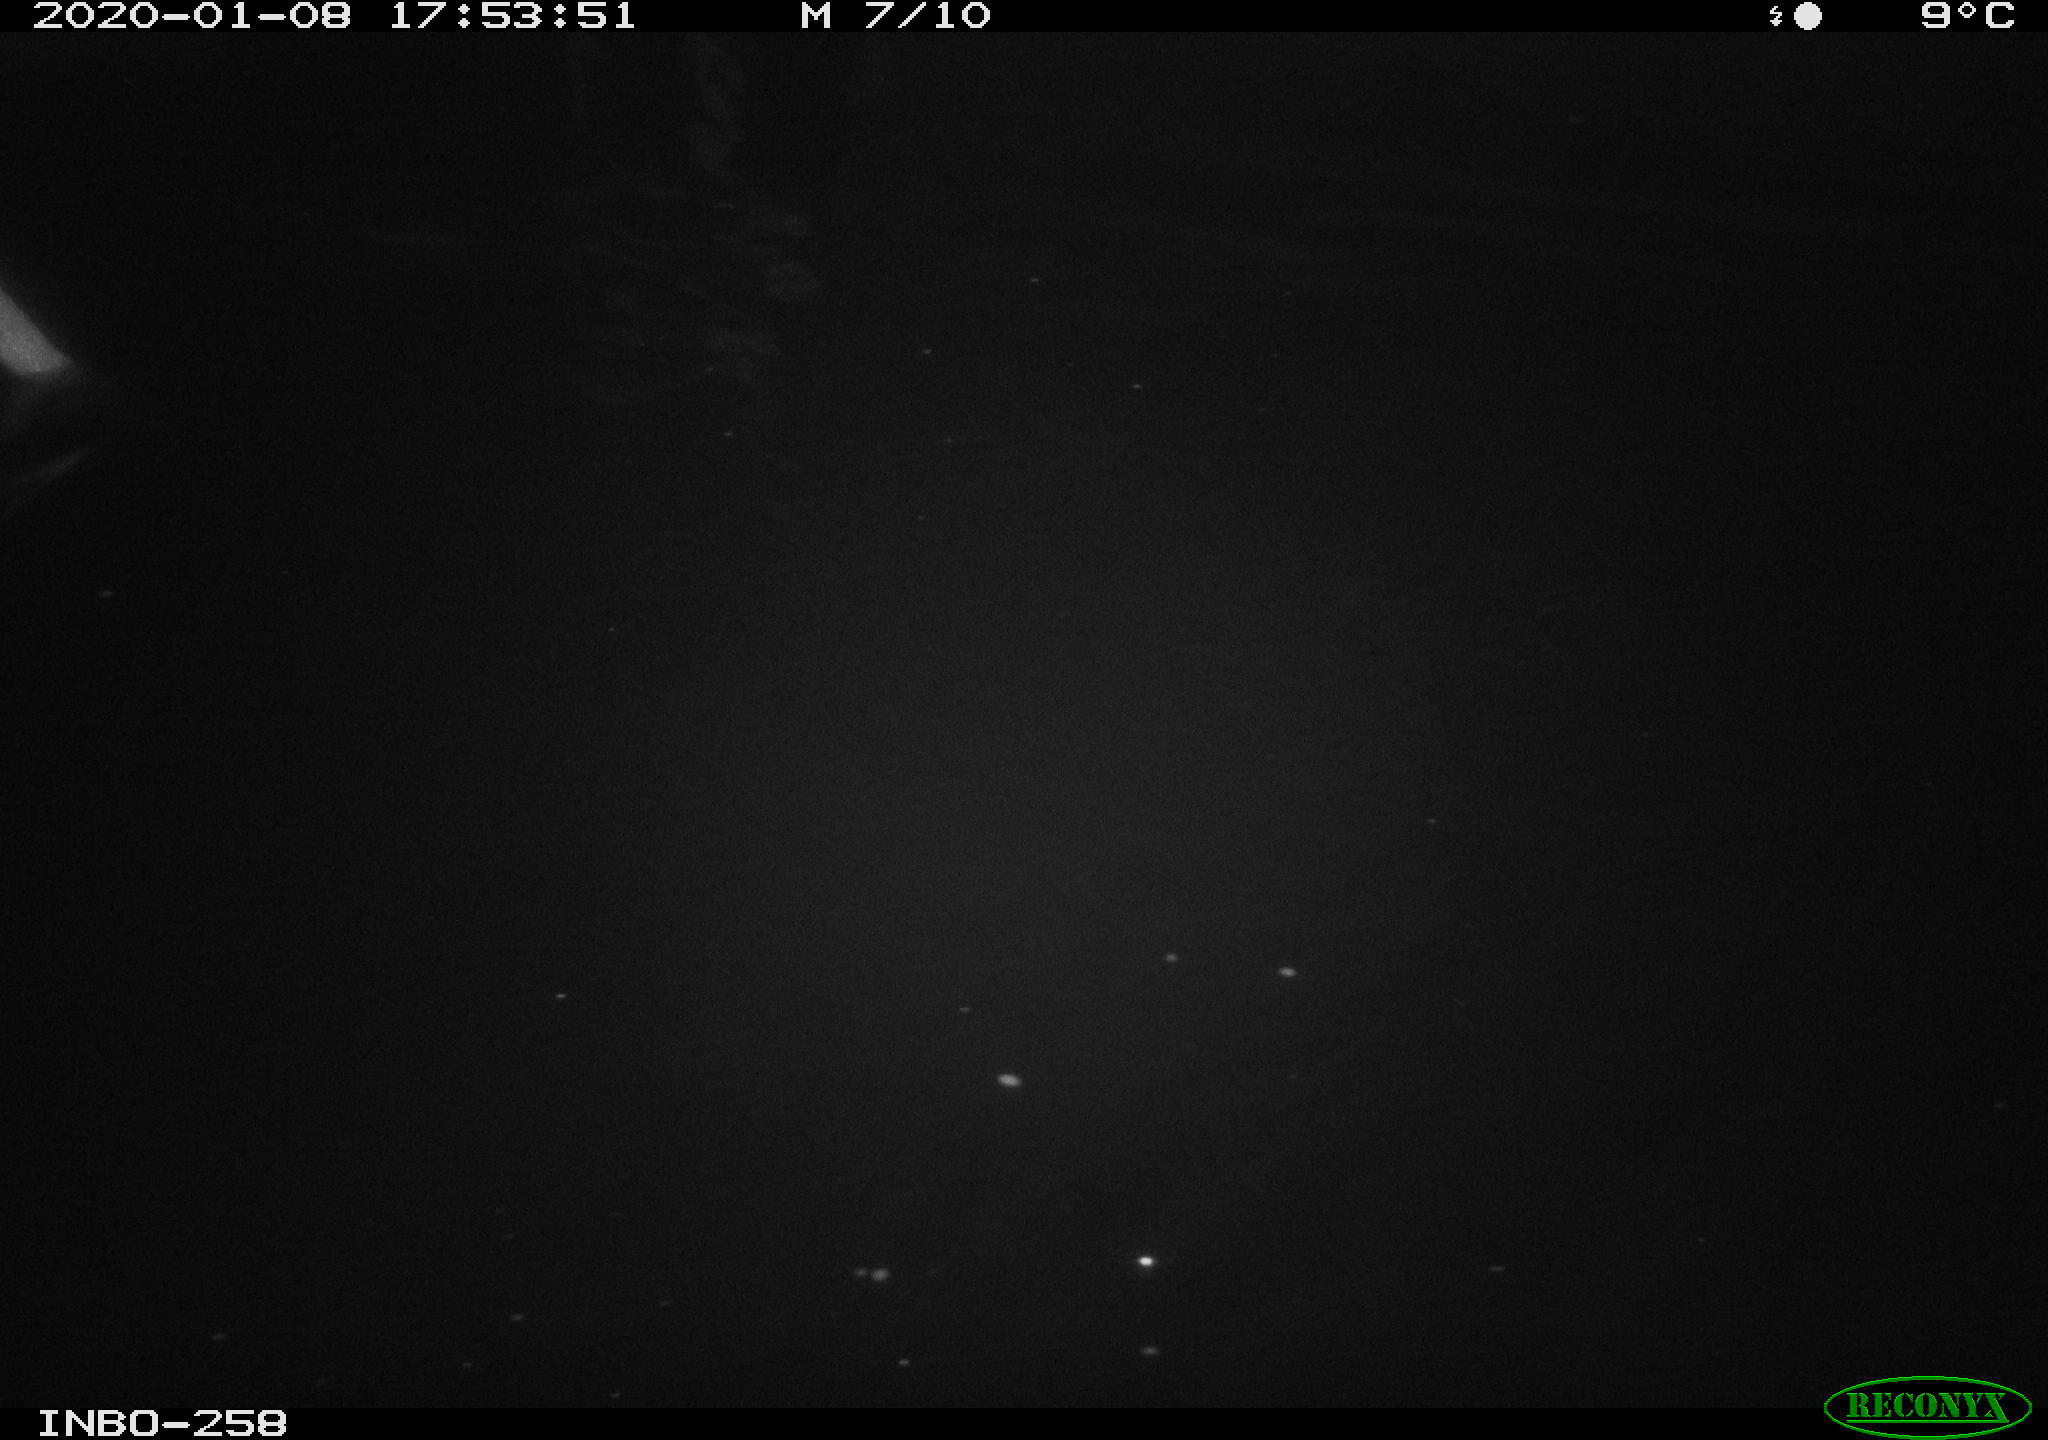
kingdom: Animalia
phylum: Chordata
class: Aves
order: Anseriformes
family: Anatidae
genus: Anas
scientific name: Anas platyrhynchos
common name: Mallard
